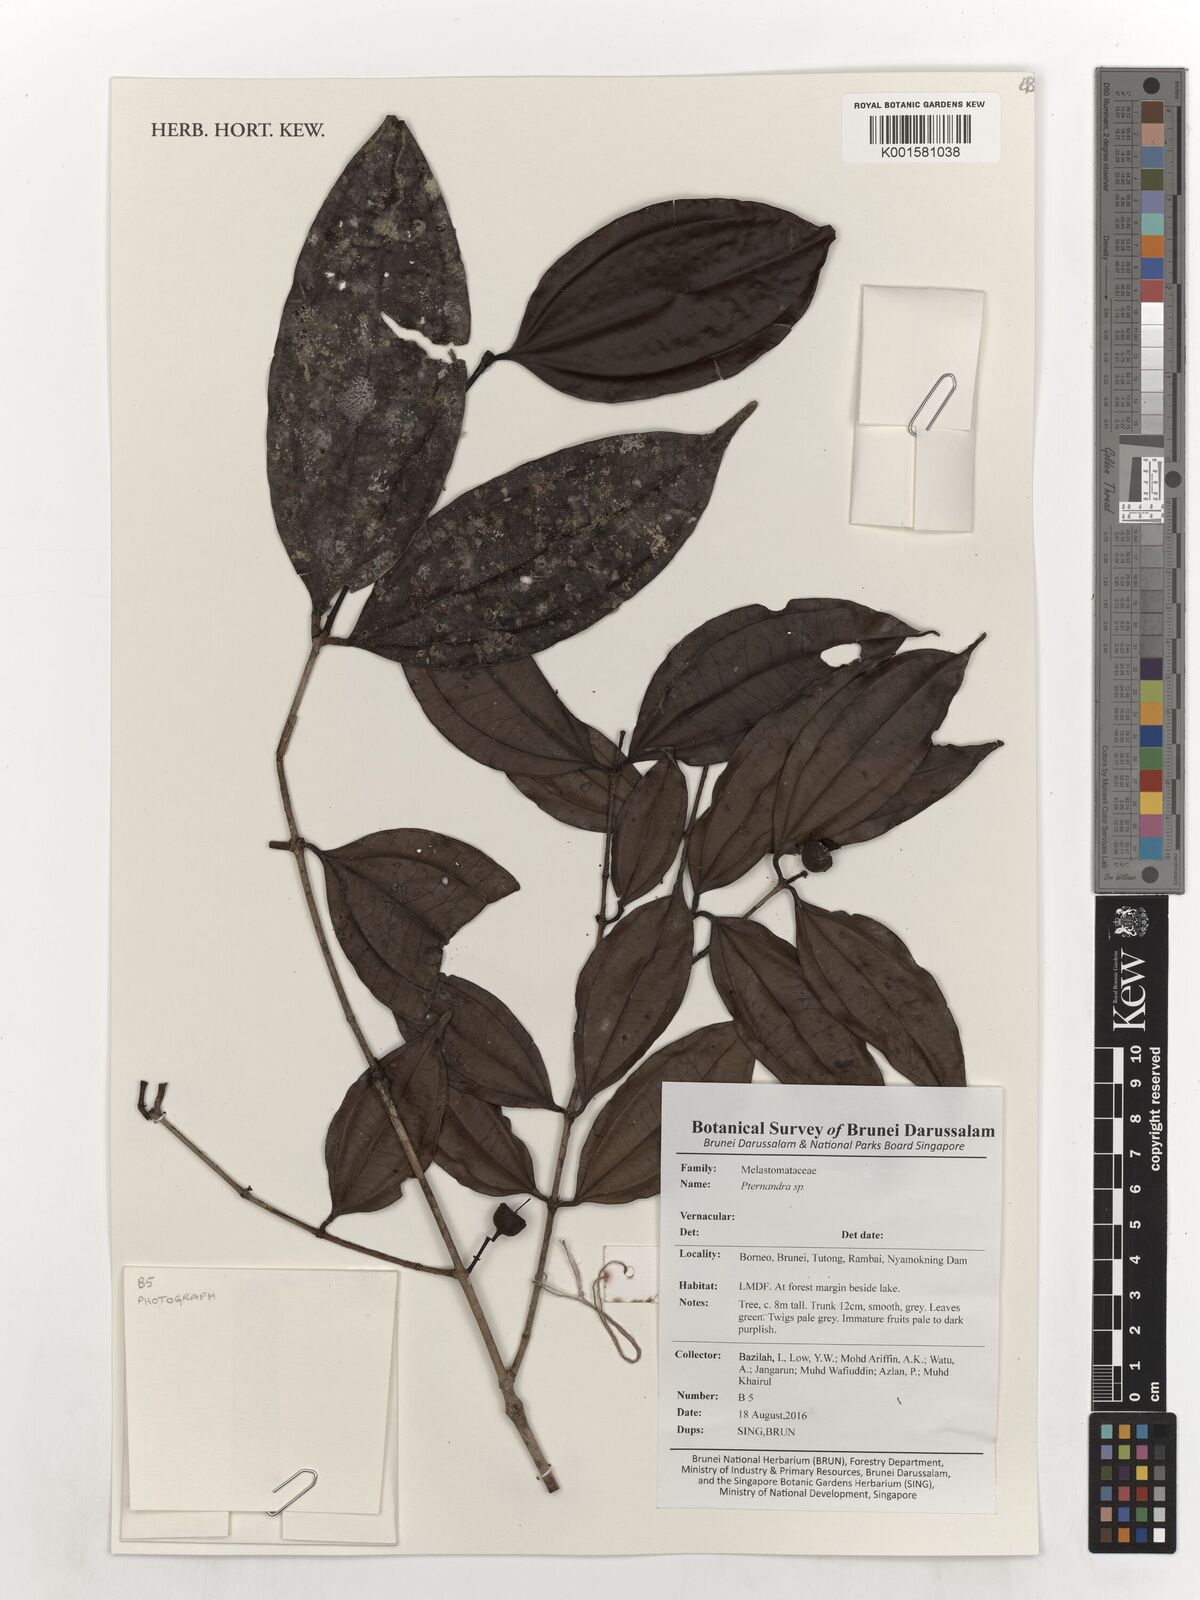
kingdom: Plantae
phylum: Tracheophyta
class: Magnoliopsida
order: Myrtales
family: Melastomataceae
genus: Pternandra
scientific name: Pternandra
